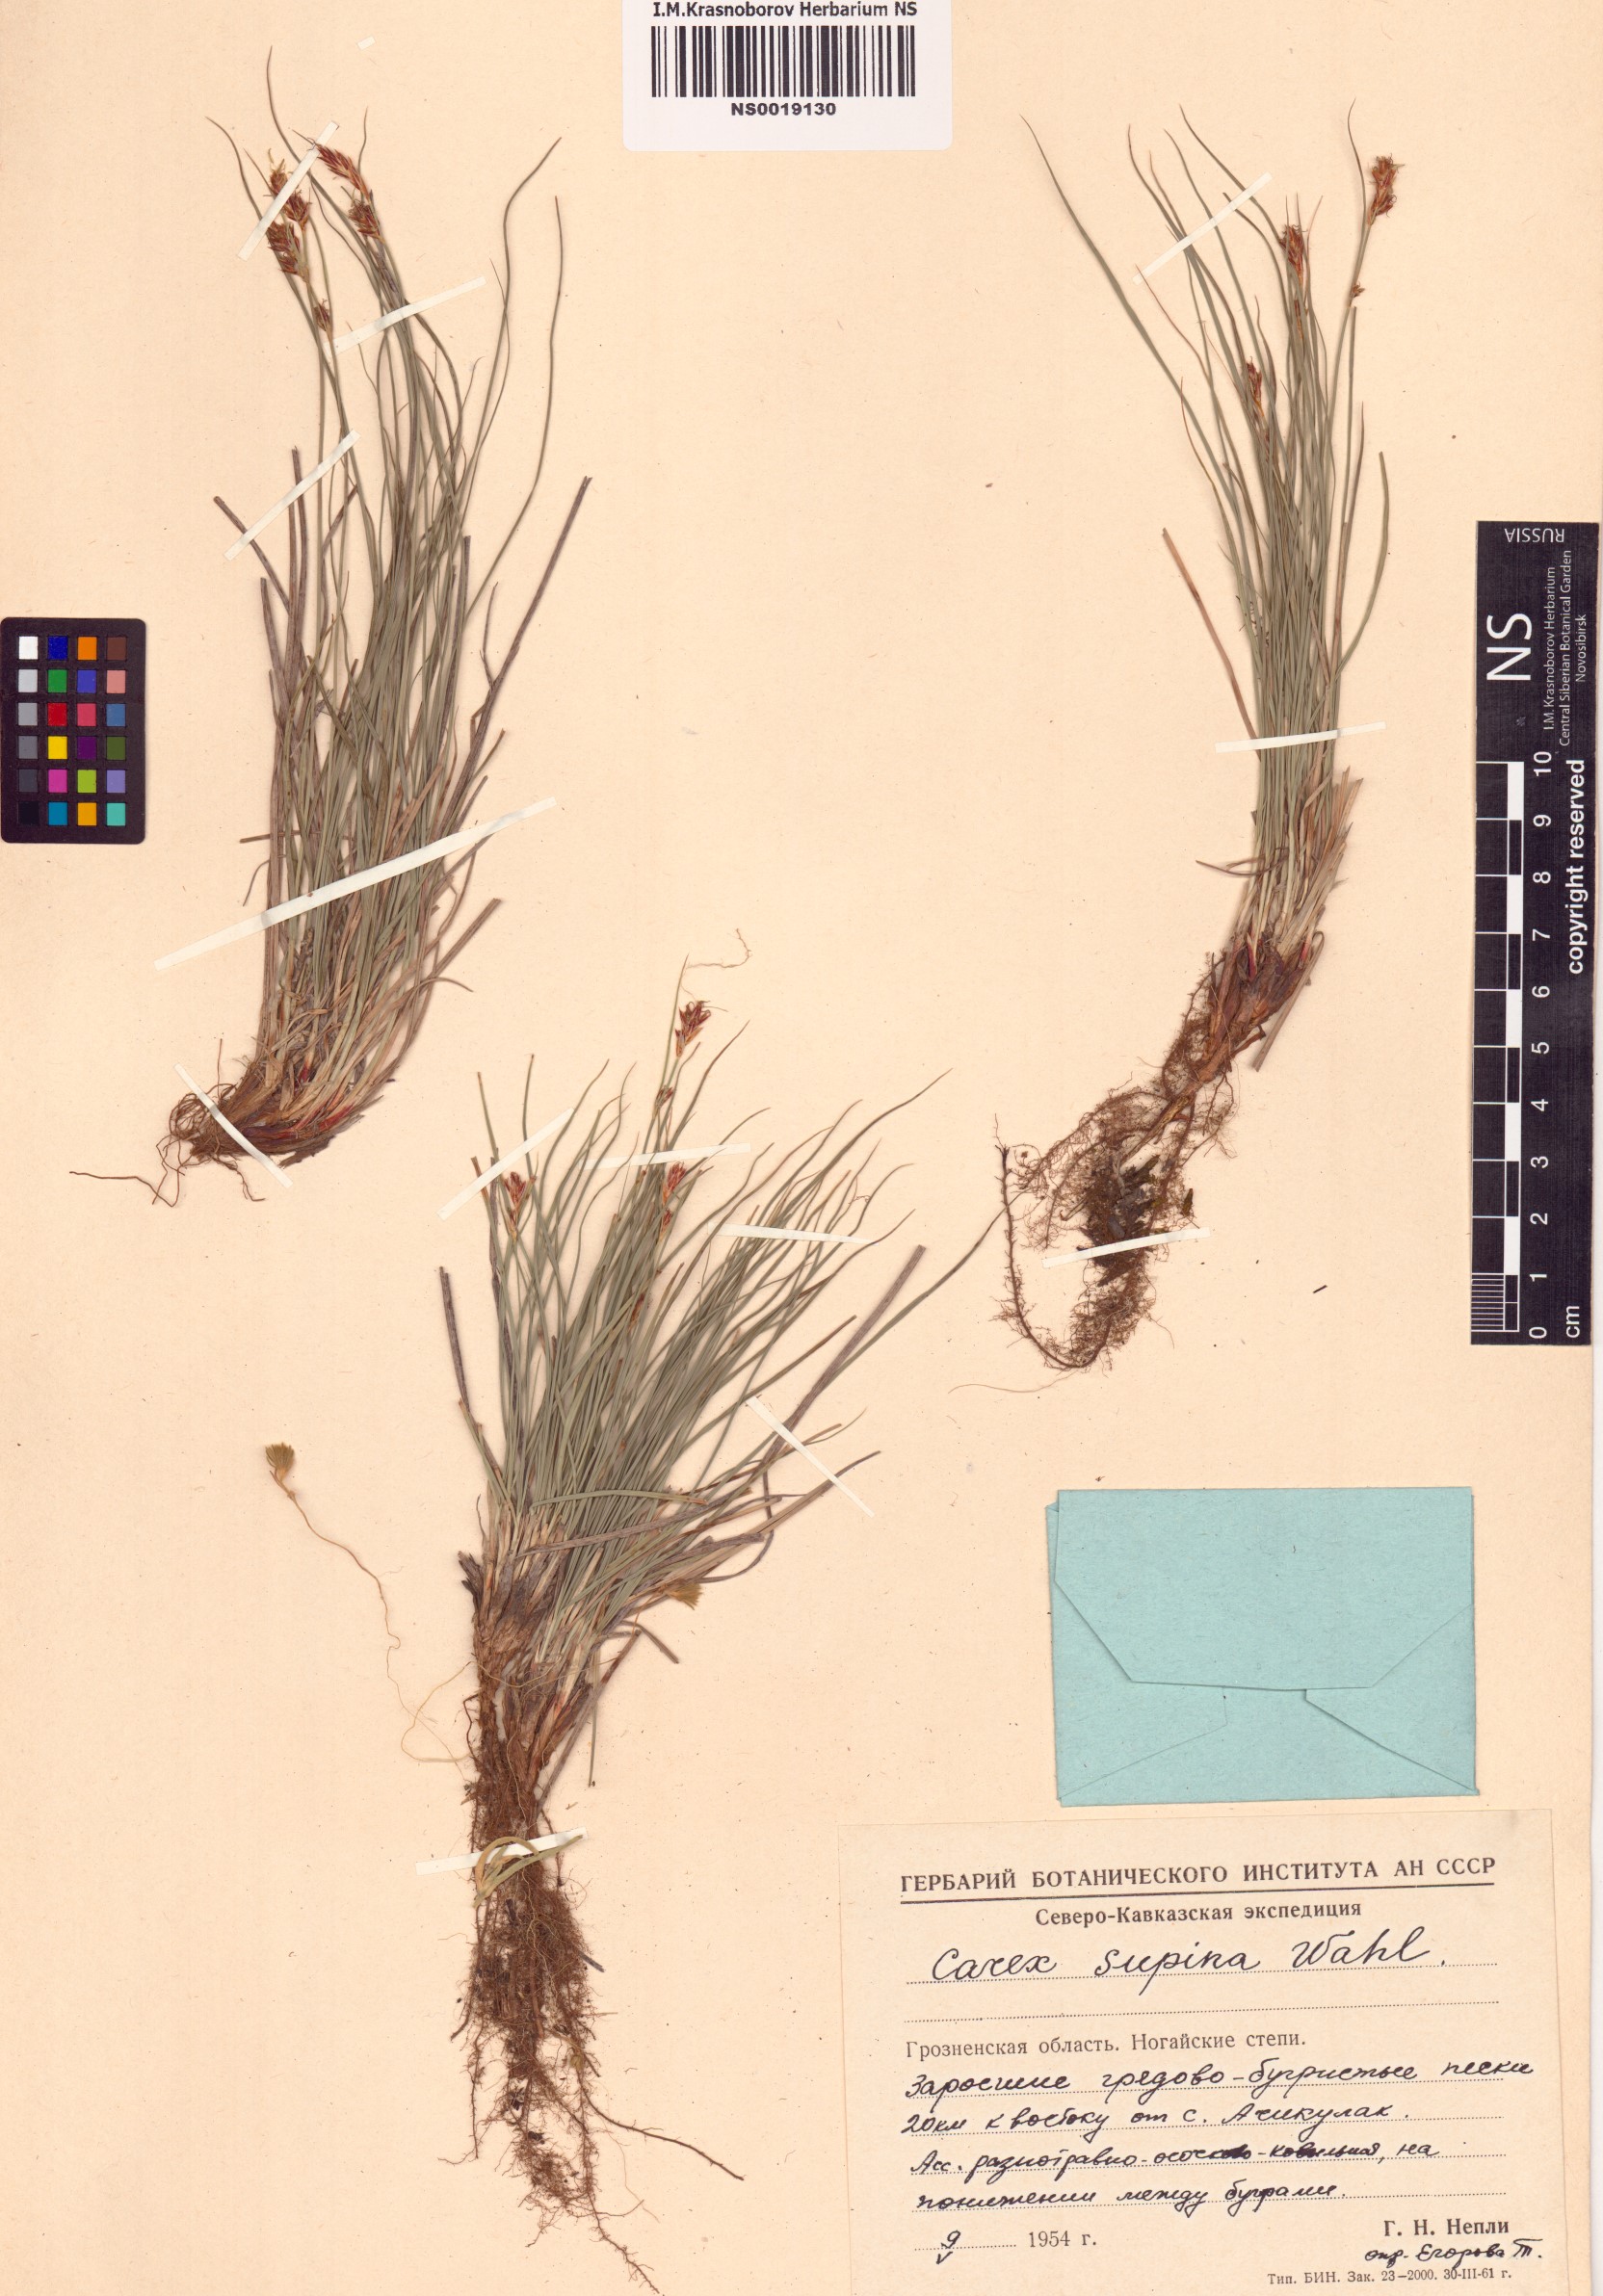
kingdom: Plantae
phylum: Tracheophyta
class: Liliopsida
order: Poales
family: Cyperaceae
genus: Carex
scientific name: Carex supina
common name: Lying-back sedge
